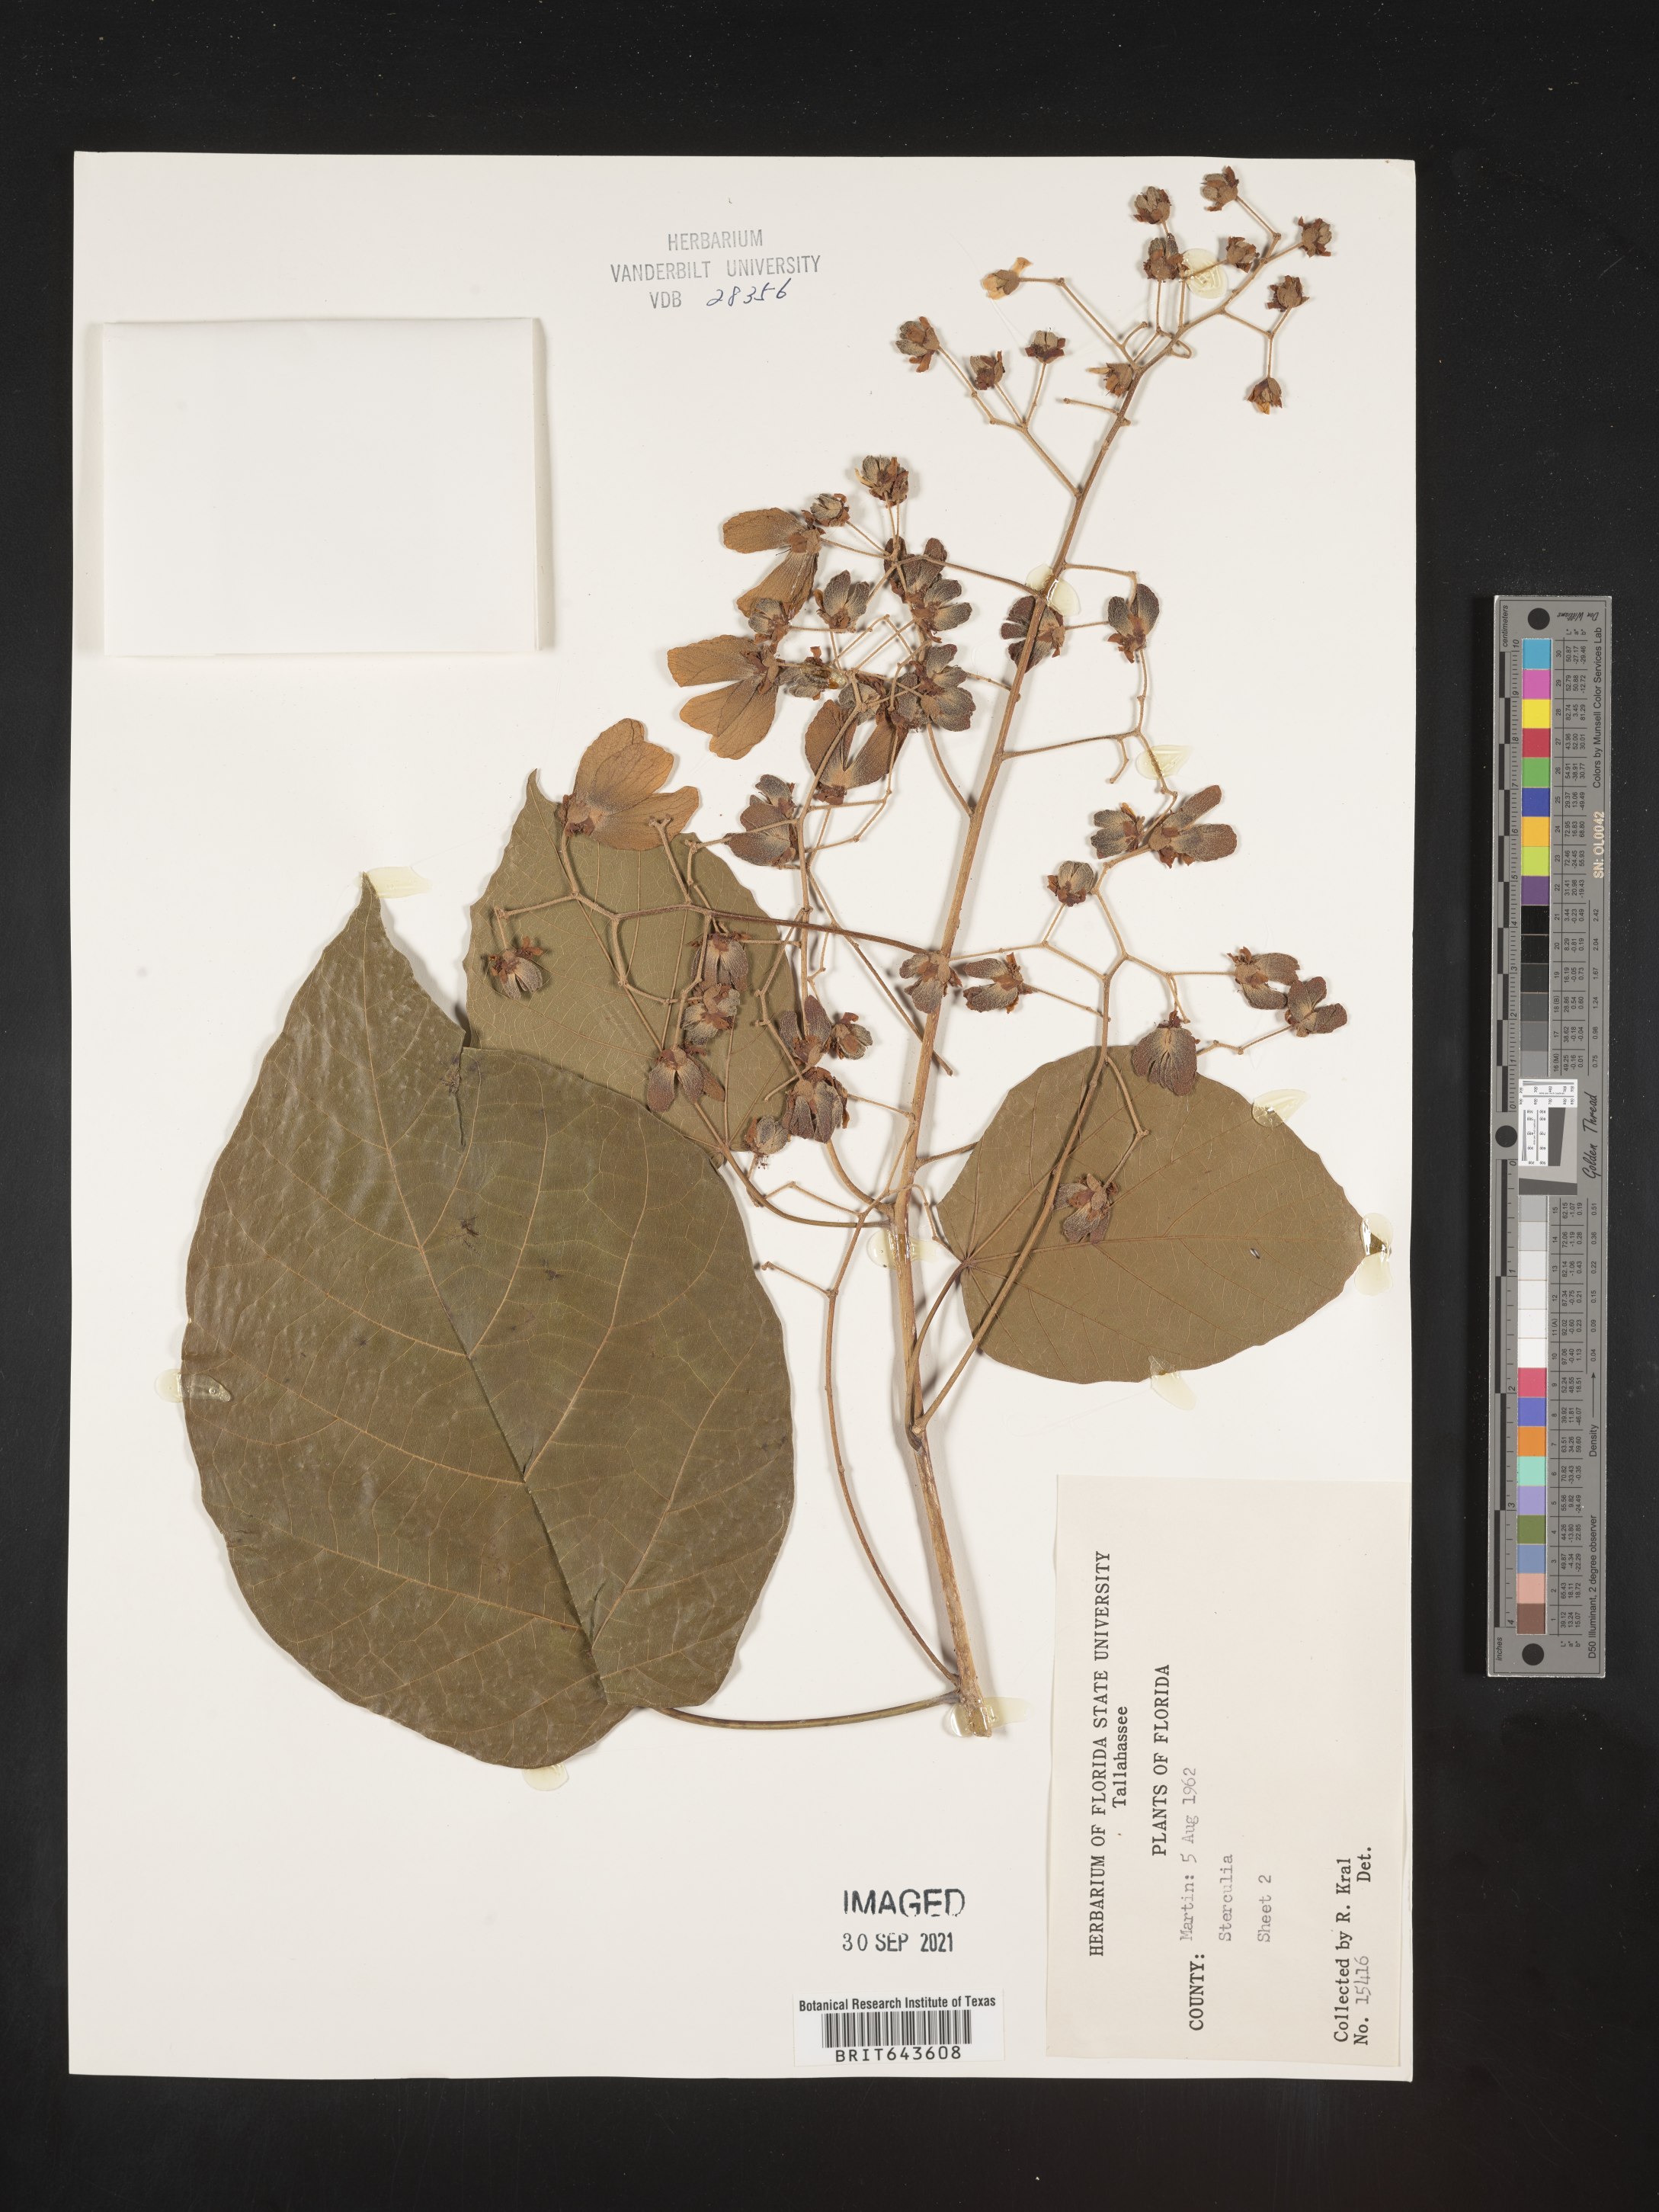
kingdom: Plantae
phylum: Tracheophyta
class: Magnoliopsida
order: Malvales
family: Malvaceae
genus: Sterculia
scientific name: Sterculia
